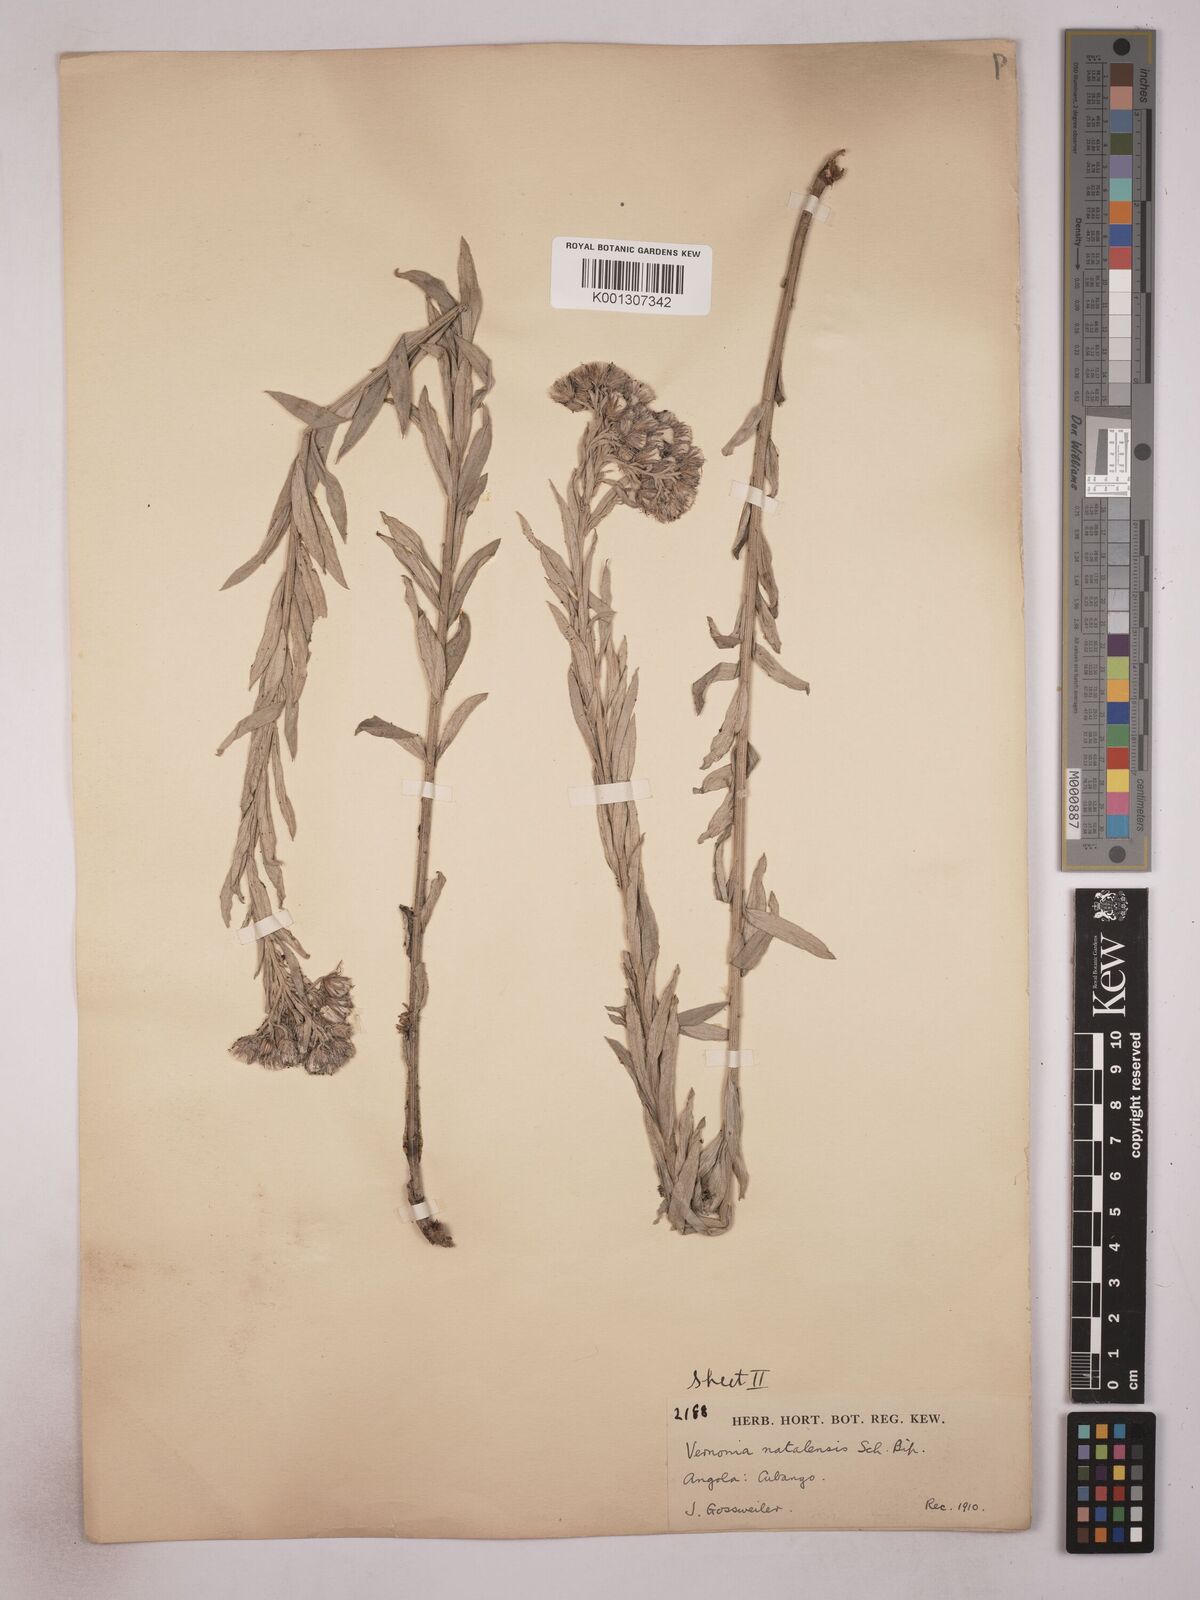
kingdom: Plantae
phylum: Tracheophyta
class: Magnoliopsida
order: Asterales
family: Asteraceae
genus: Hilliardiella
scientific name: Hilliardiella aristata
